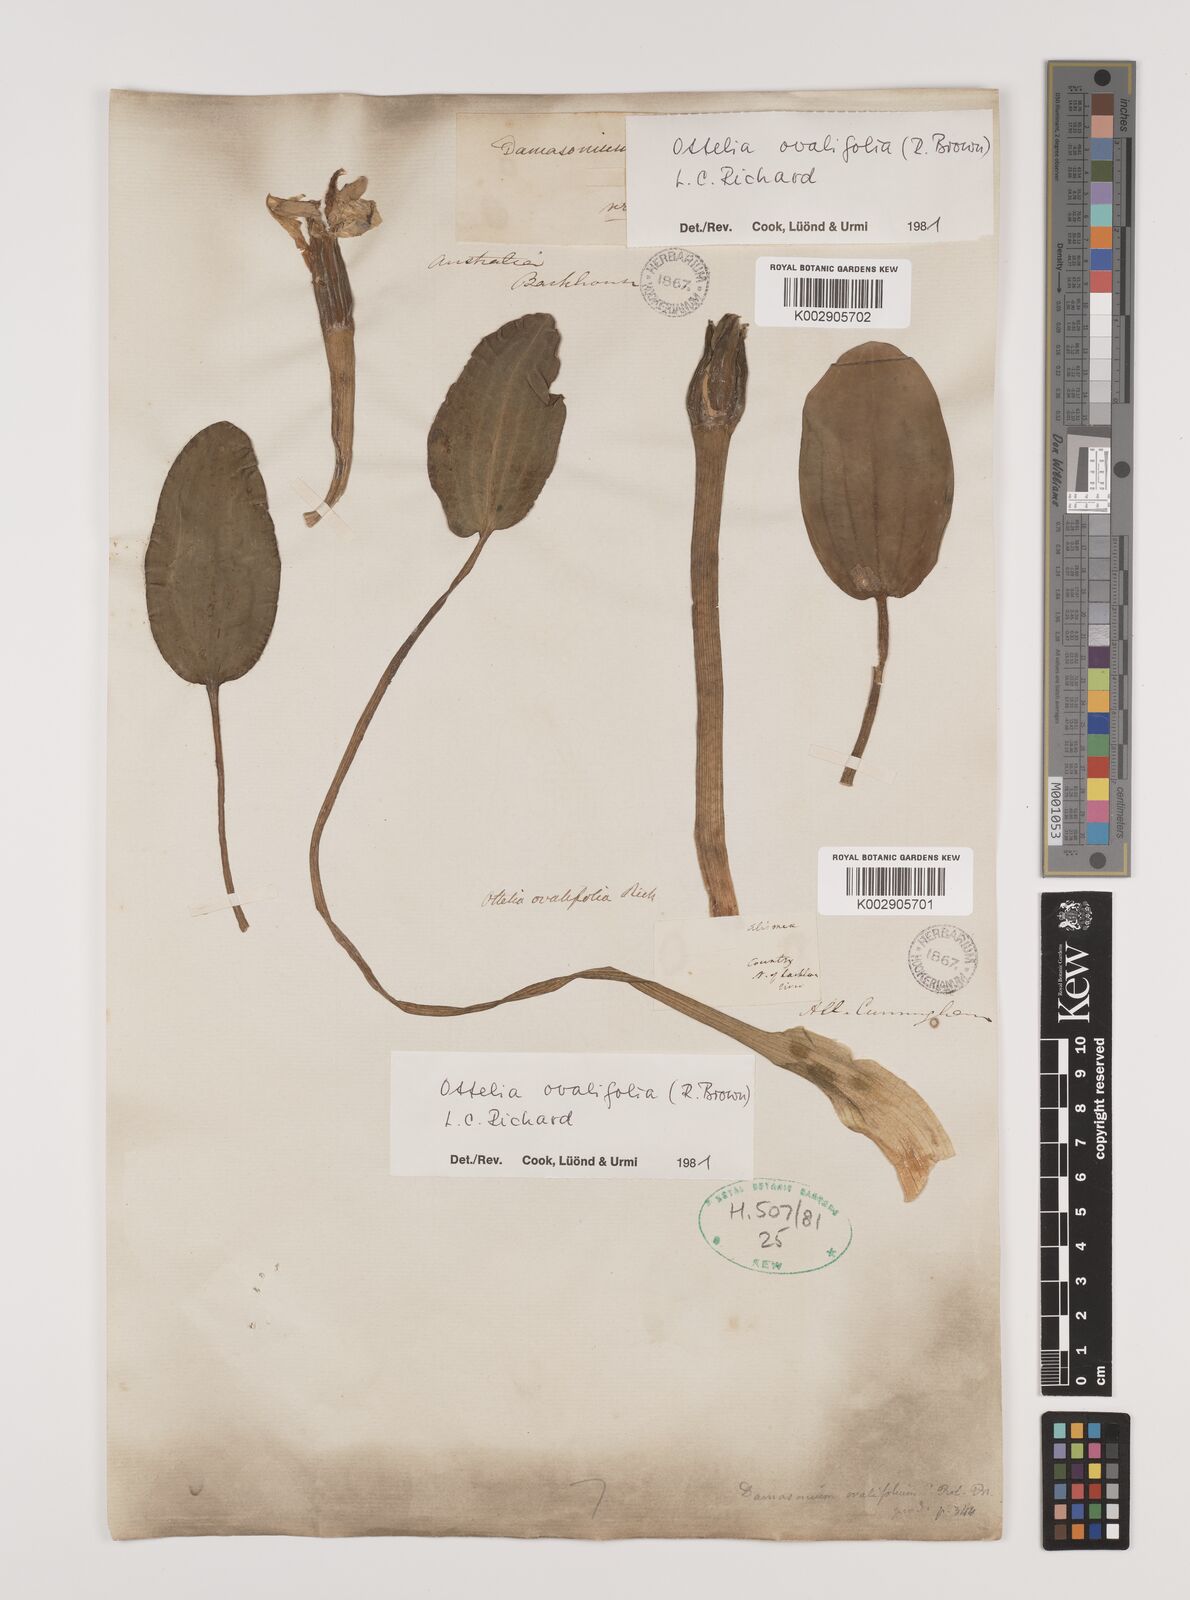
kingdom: Plantae
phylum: Tracheophyta
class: Liliopsida
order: Alismatales
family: Hydrocharitaceae
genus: Ottelia
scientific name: Ottelia ovalifolia
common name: Swamp-lily
